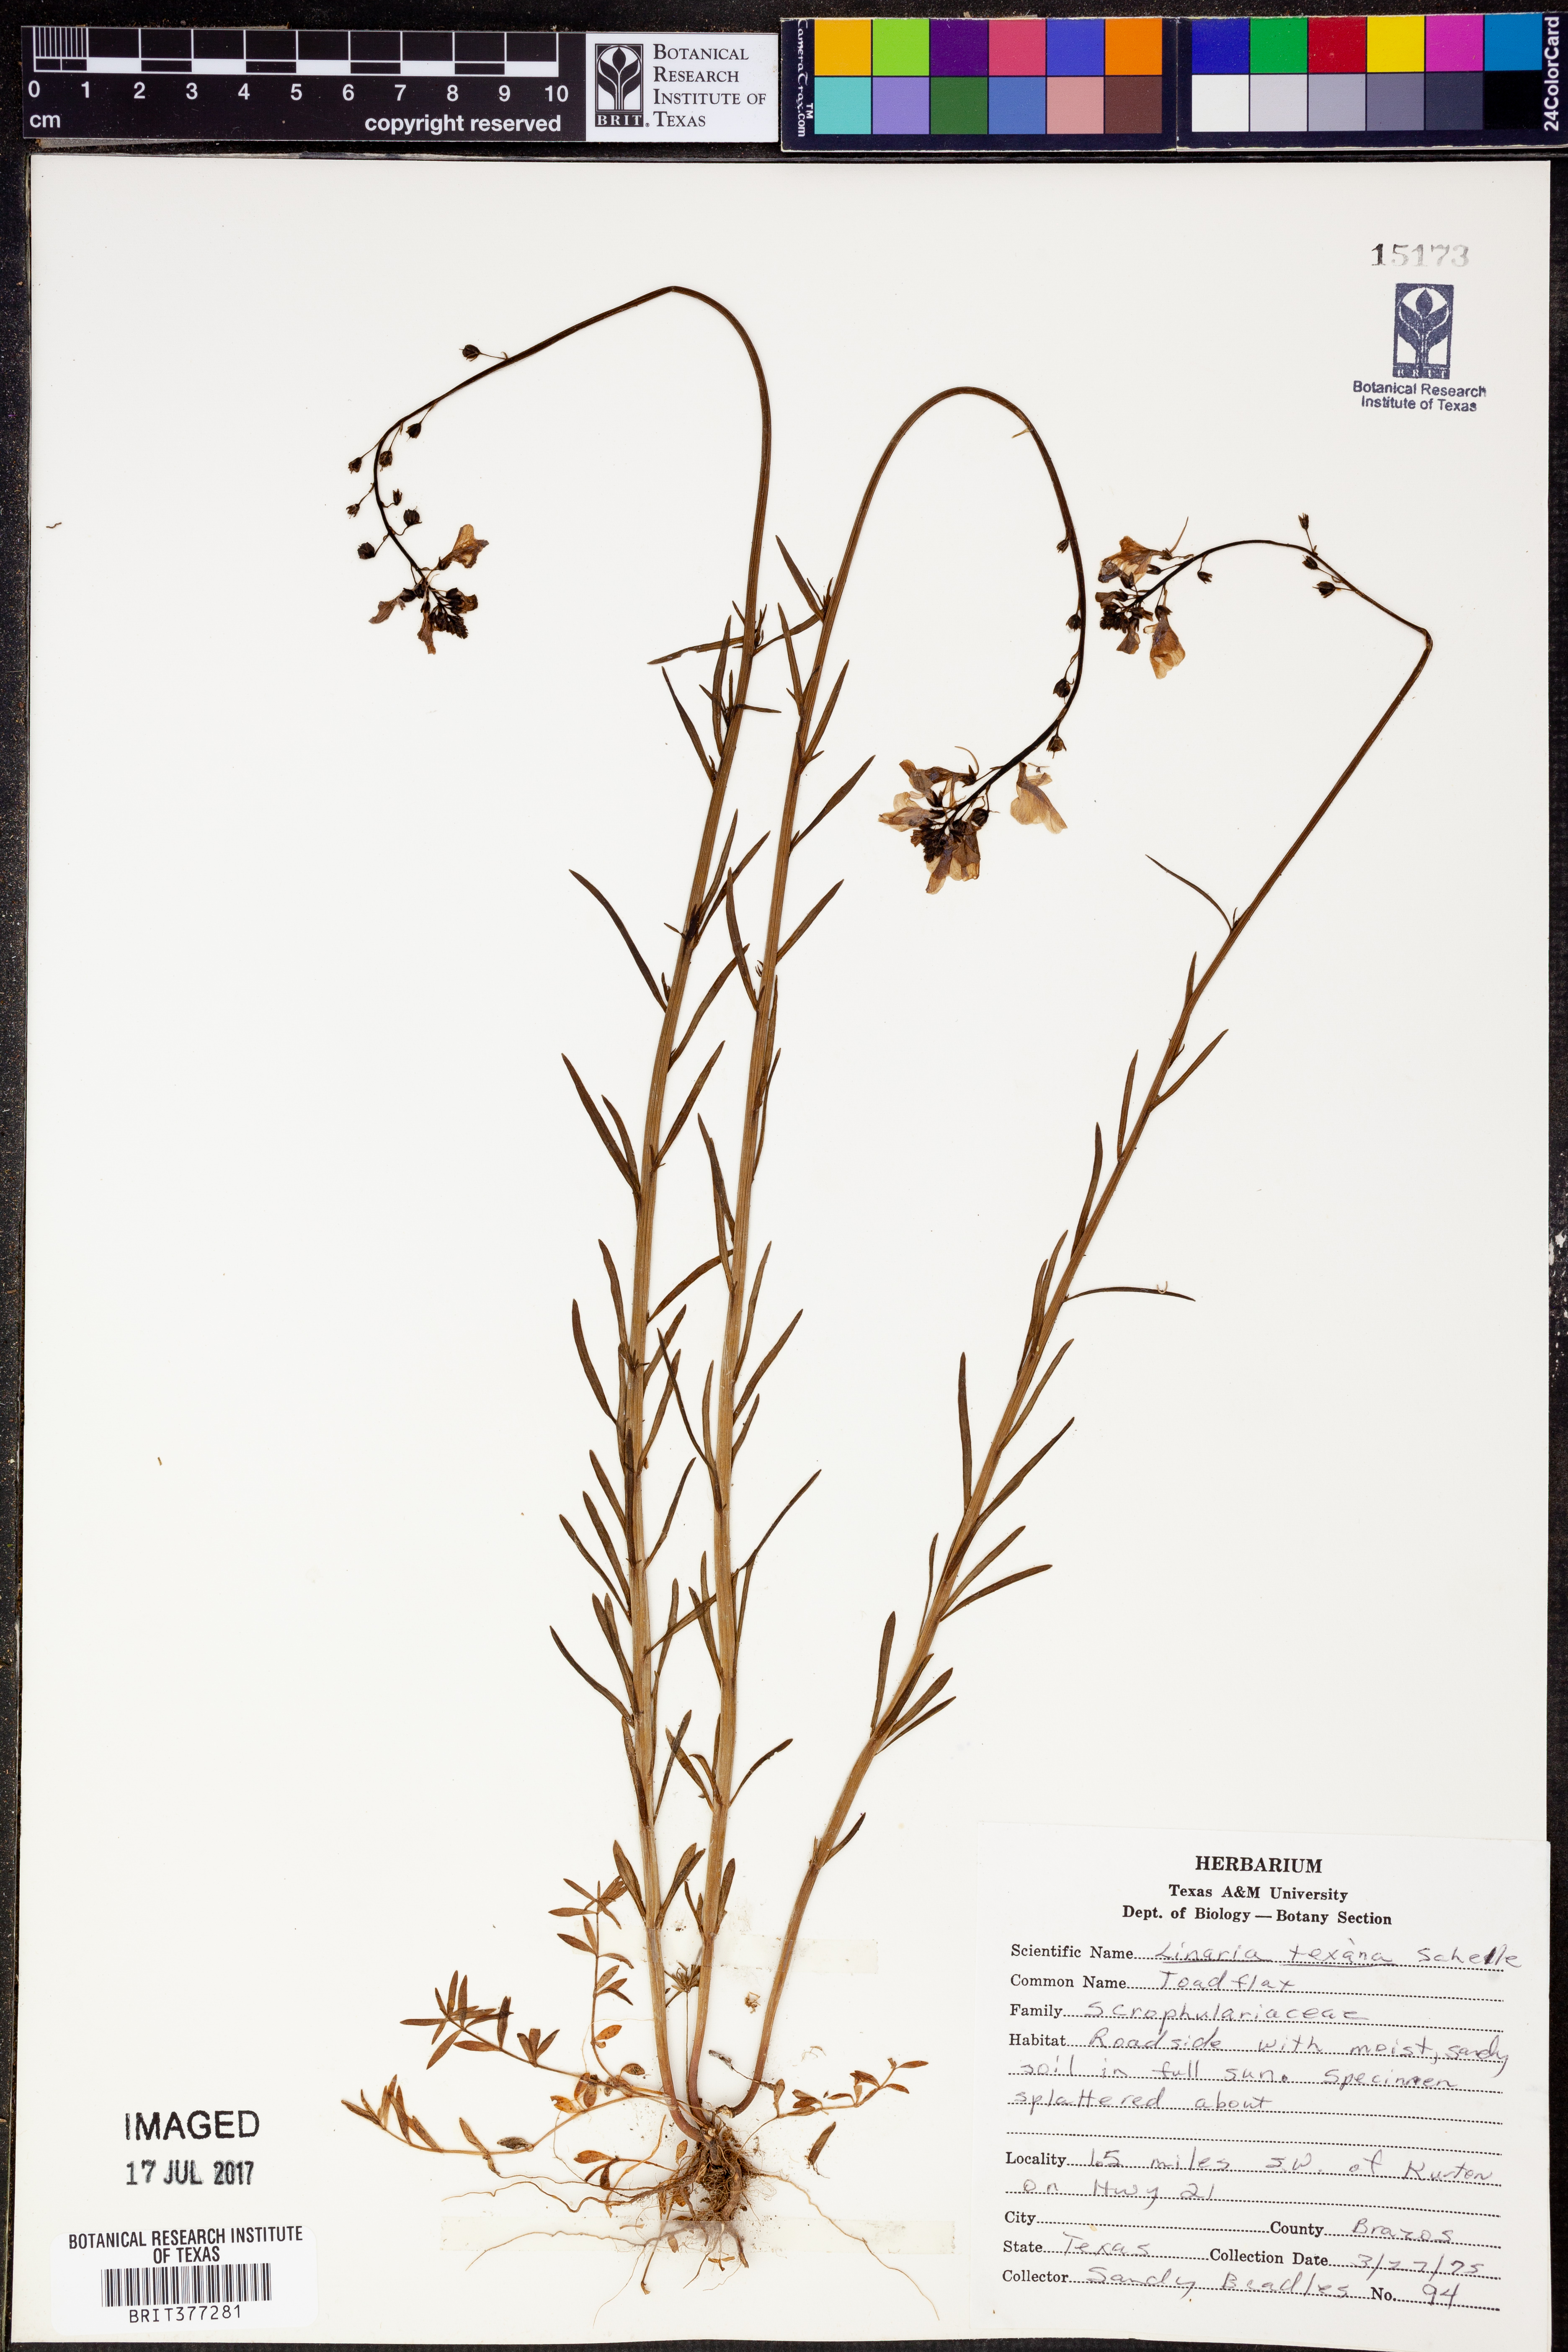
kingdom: Plantae
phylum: Tracheophyta
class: Magnoliopsida
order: Lamiales
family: Plantaginaceae
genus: Nuttallanthus
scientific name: Nuttallanthus texanus
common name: Texas toadflax
